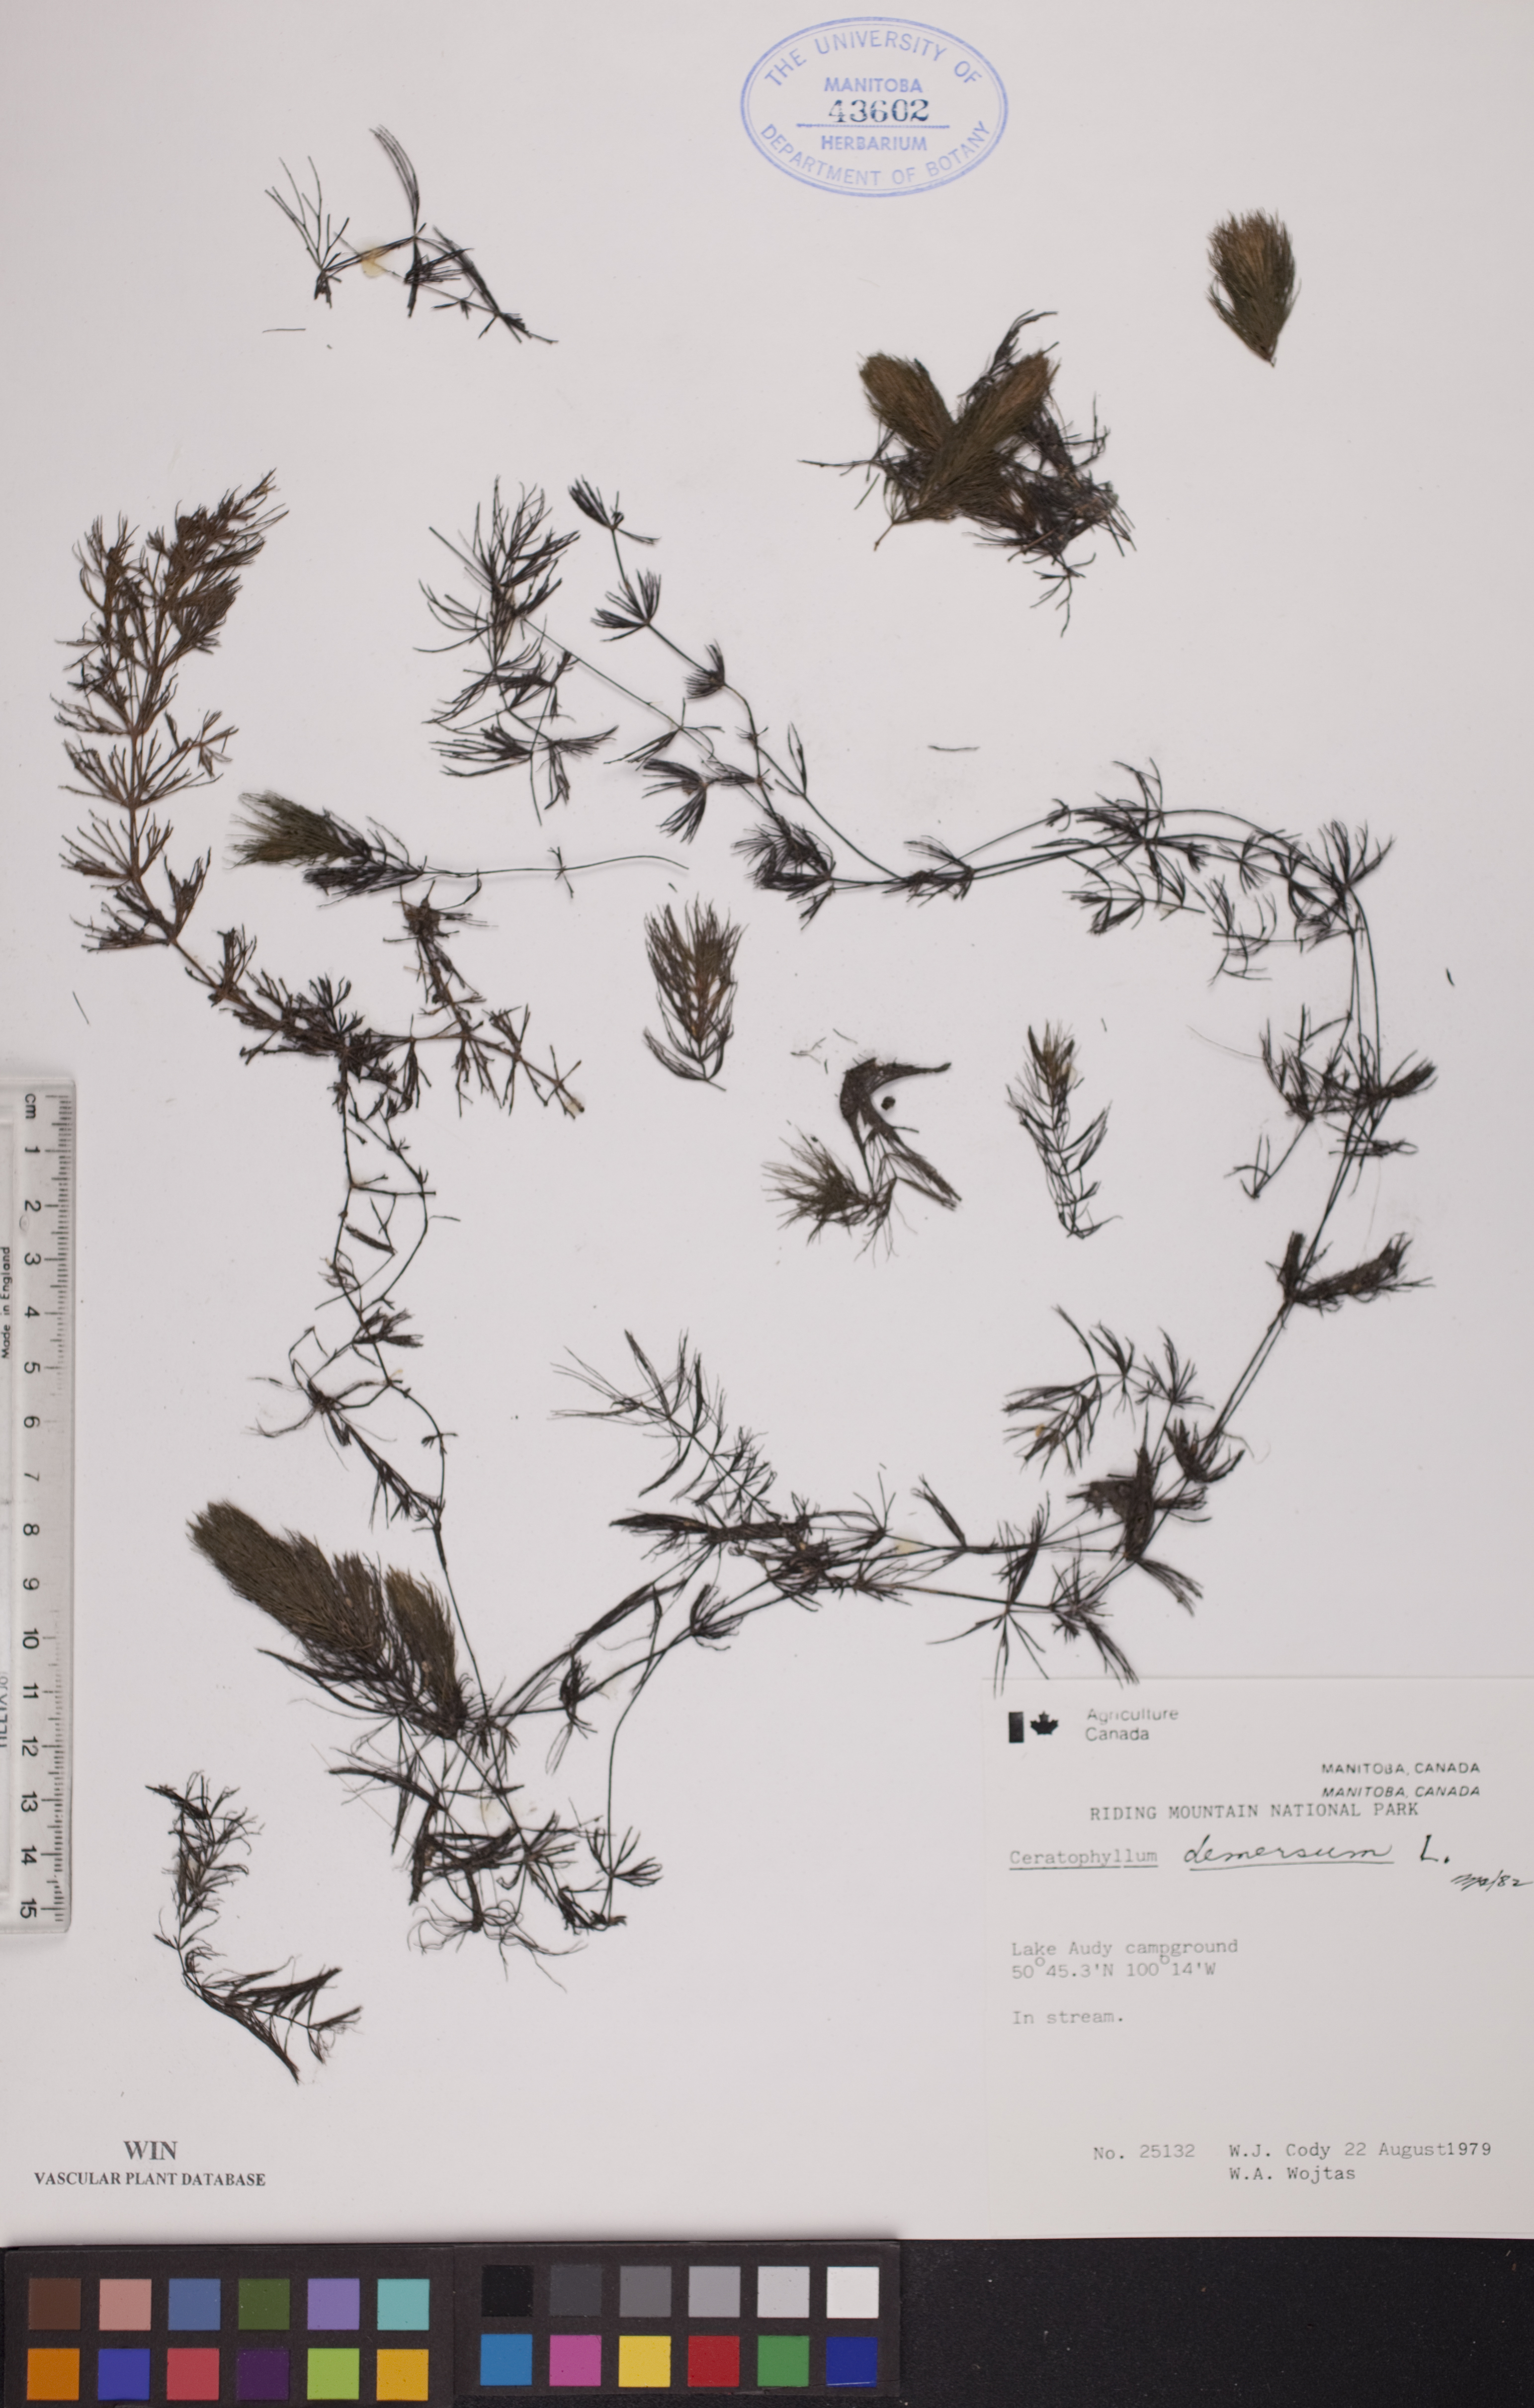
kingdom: Plantae
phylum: Tracheophyta
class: Magnoliopsida
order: Ceratophyllales
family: Ceratophyllaceae
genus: Ceratophyllum
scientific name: Ceratophyllum demersum
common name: Rigid hornwort
